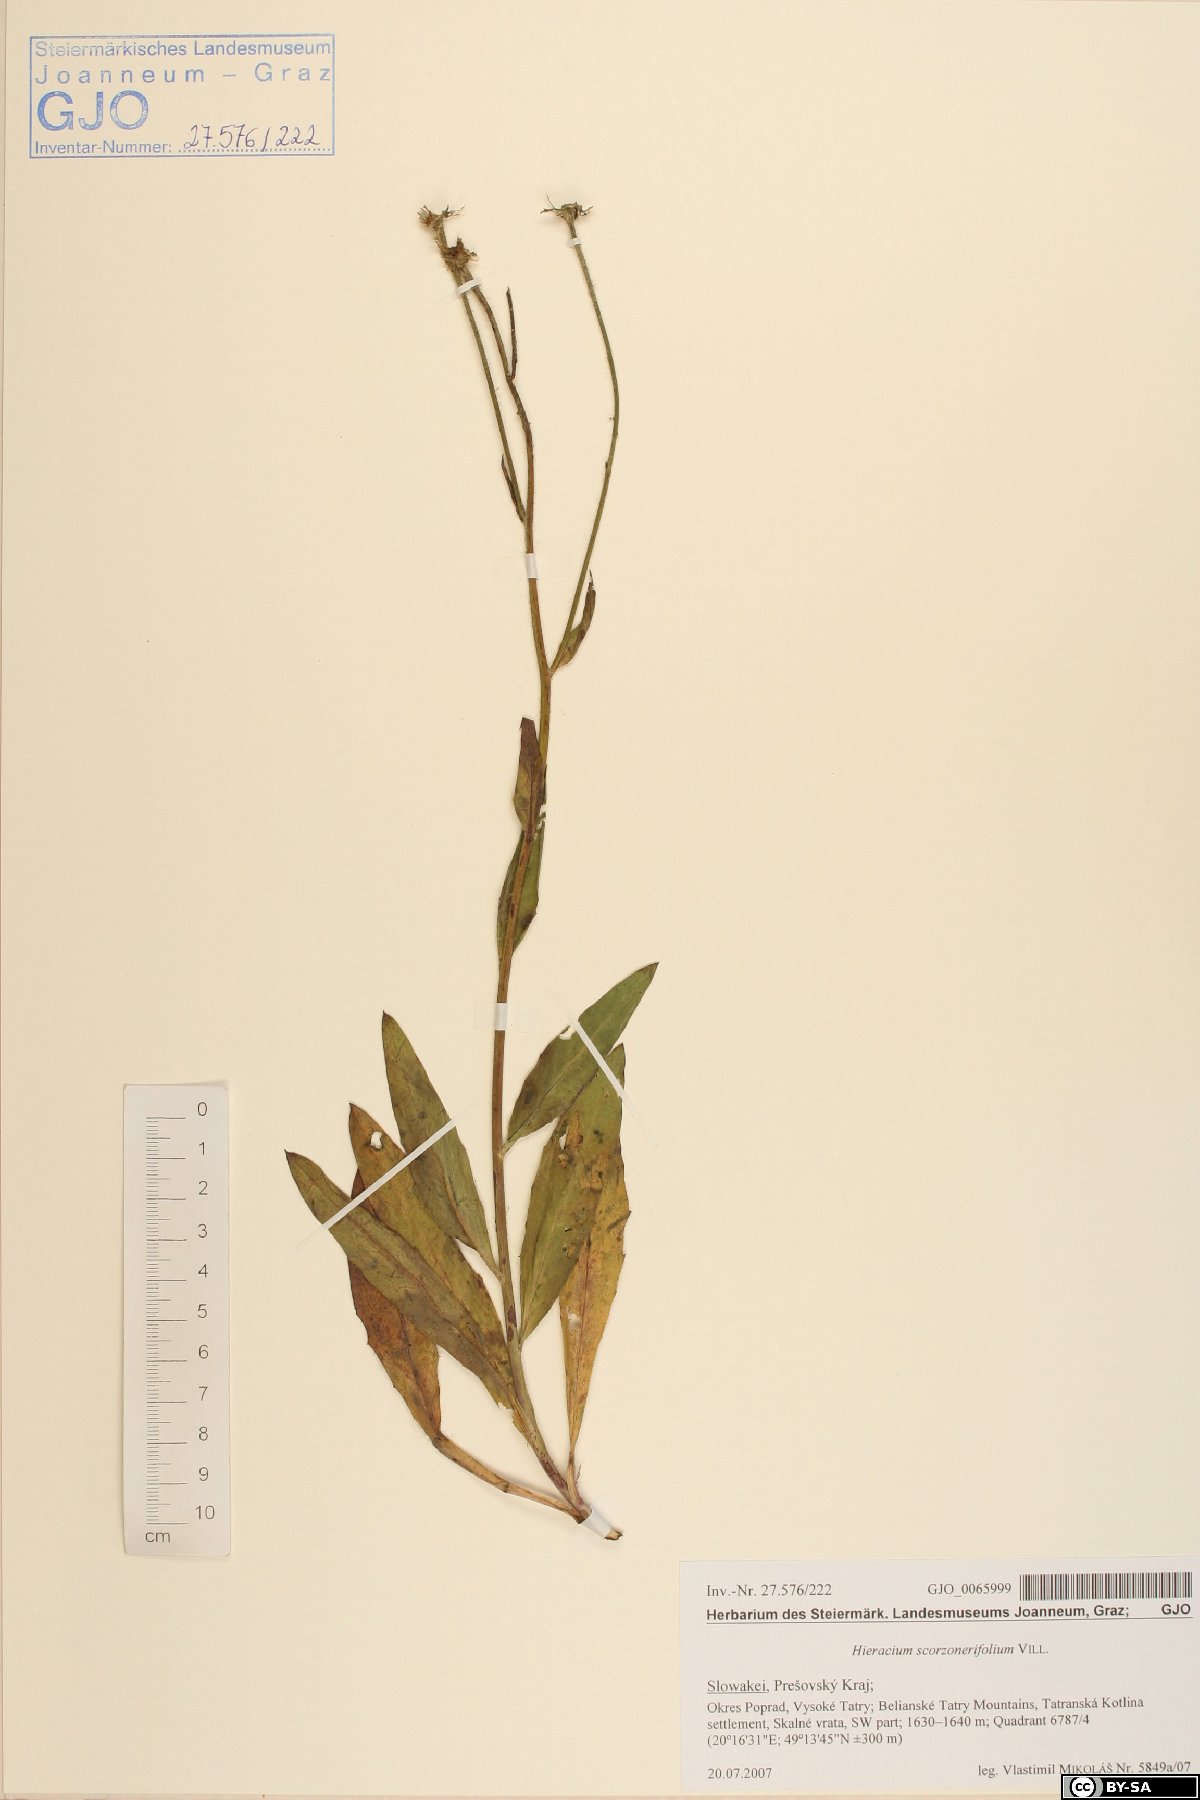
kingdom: Plantae
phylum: Tracheophyta
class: Magnoliopsida
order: Asterales
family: Asteraceae
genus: Hieracium
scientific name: Hieracium scorzonerifolium
